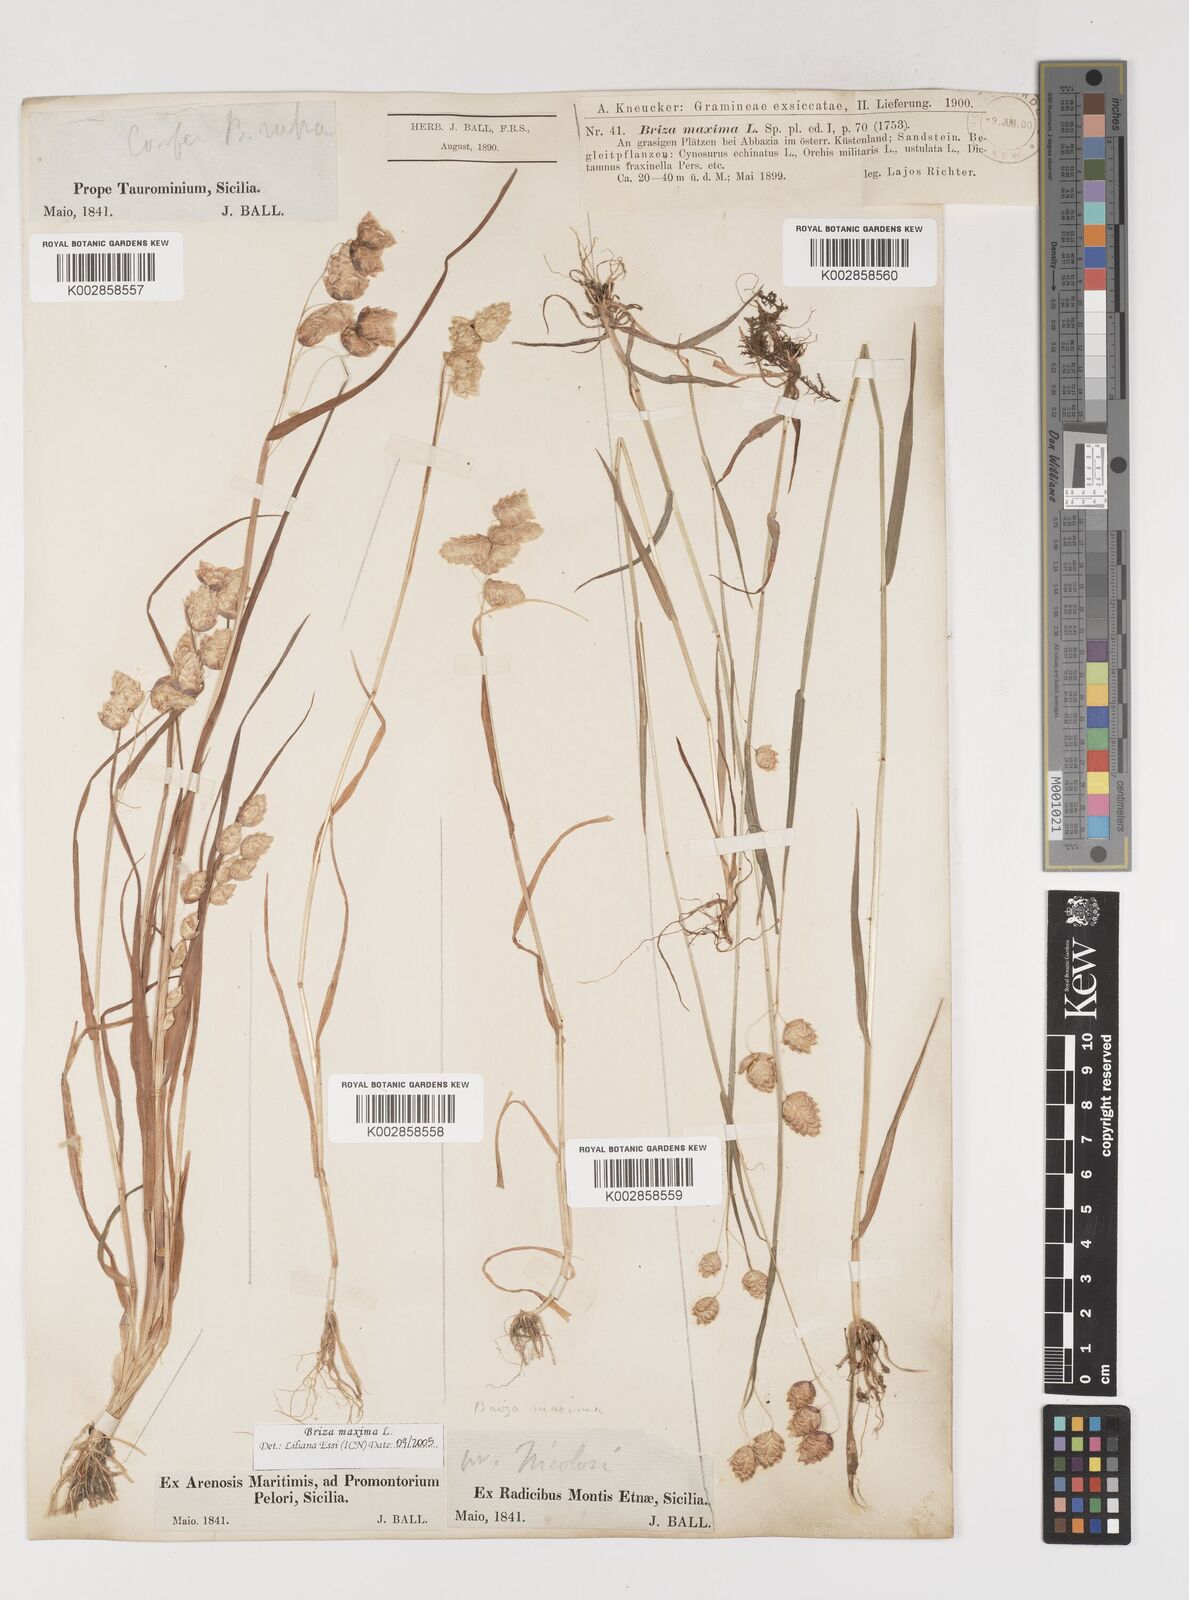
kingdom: Plantae
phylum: Tracheophyta
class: Liliopsida
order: Poales
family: Poaceae
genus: Briza
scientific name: Briza maxima
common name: Big quakinggrass
